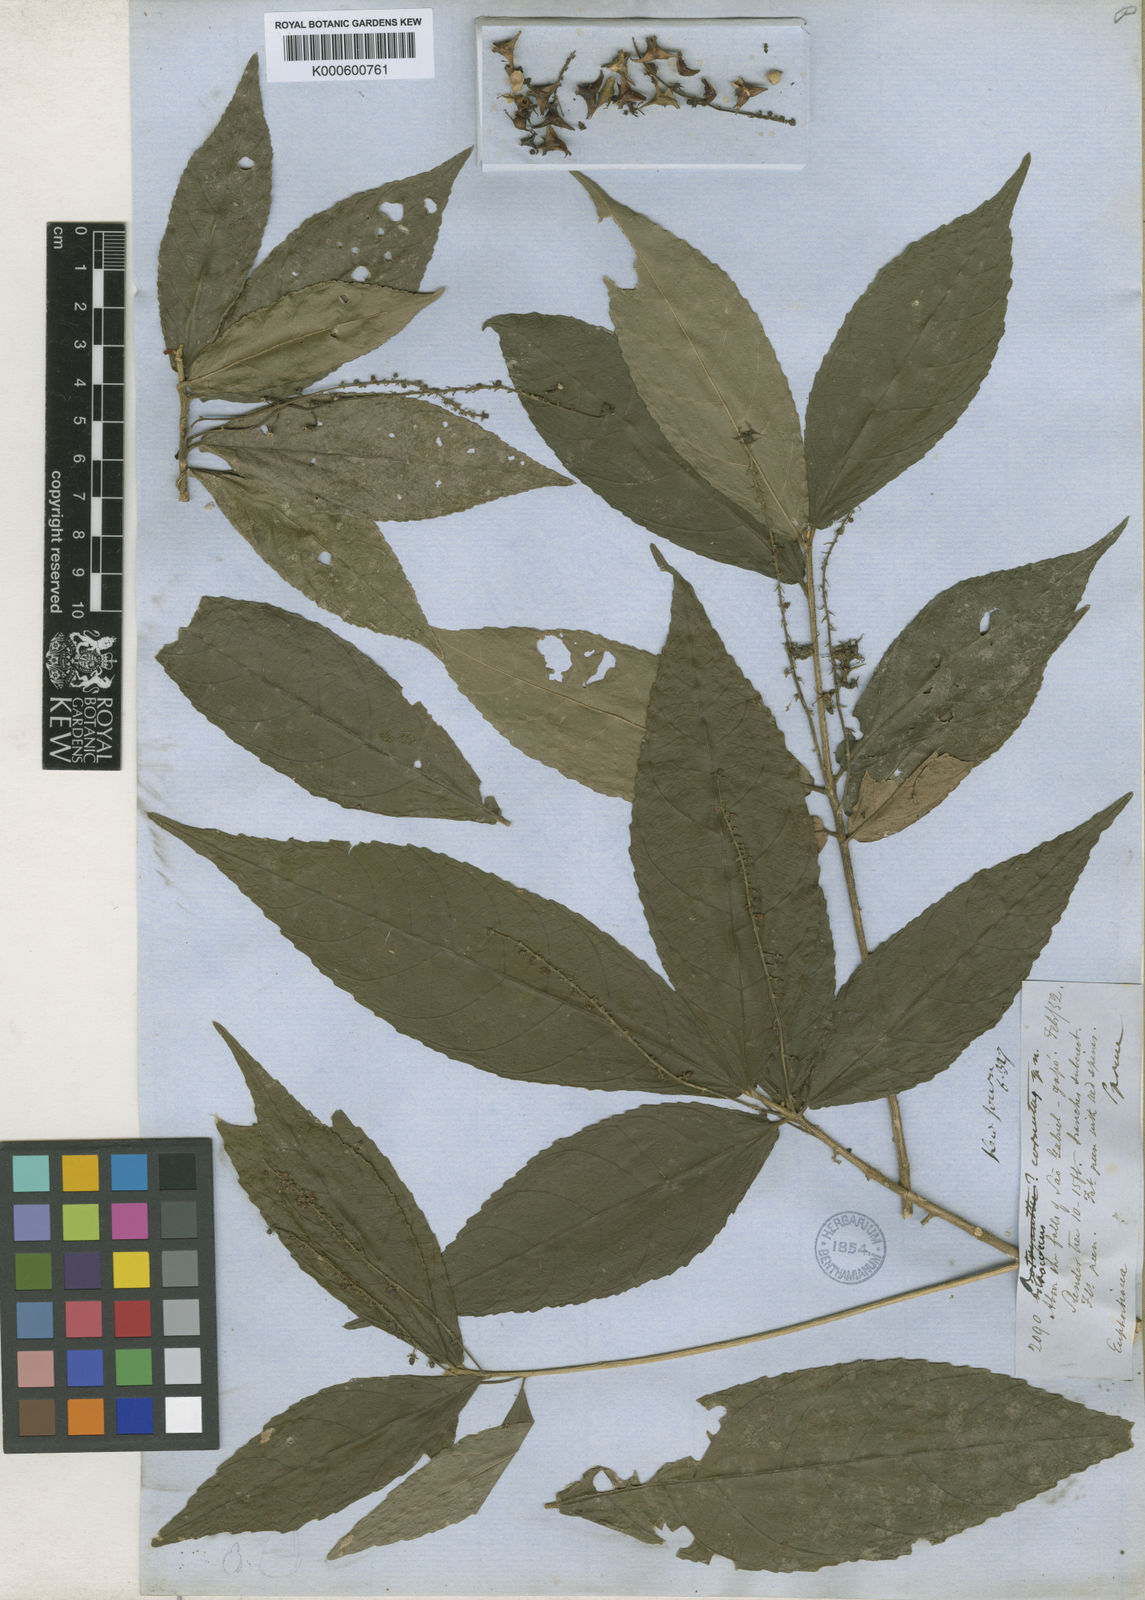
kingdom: Plantae
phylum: Tracheophyta
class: Magnoliopsida
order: Malpighiales
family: Euphorbiaceae
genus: Astrococcus
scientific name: Astrococcus cornutus
